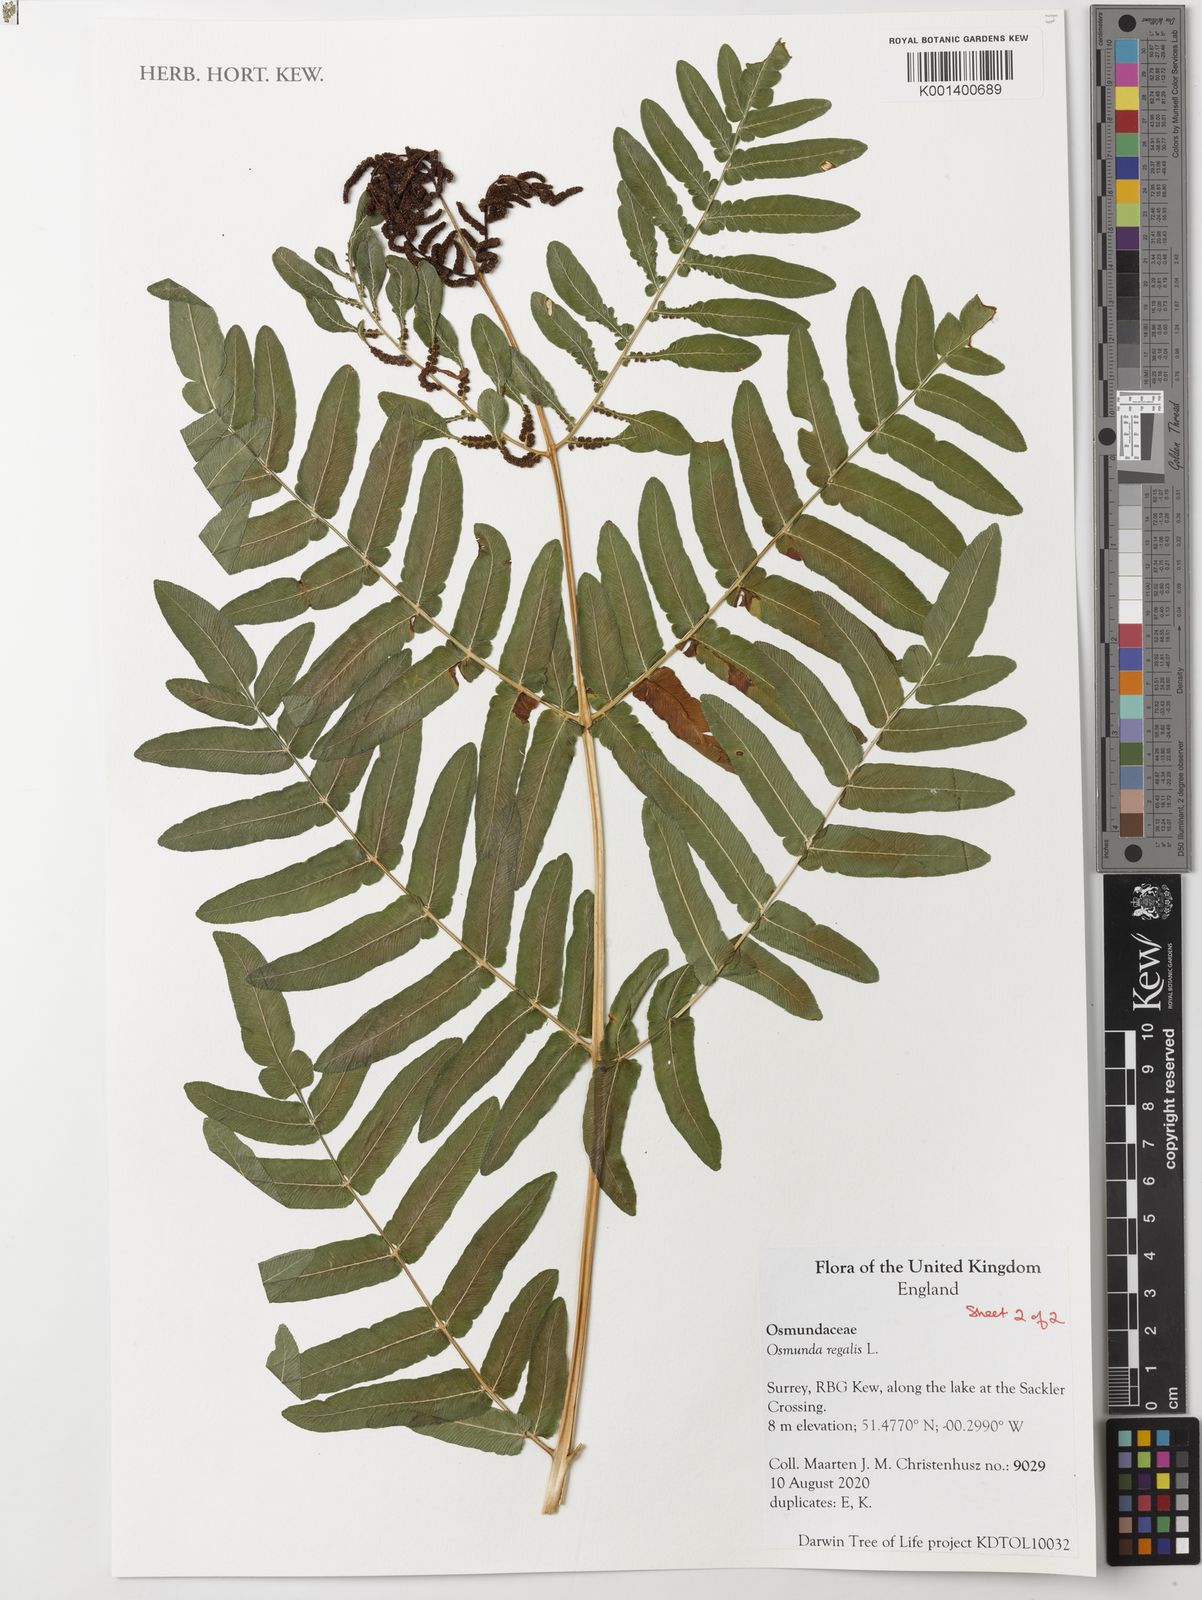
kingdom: Plantae
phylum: Tracheophyta
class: Polypodiopsida
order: Osmundales
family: Osmundaceae
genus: Osmunda
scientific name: Osmunda regalis
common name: Royal fern
